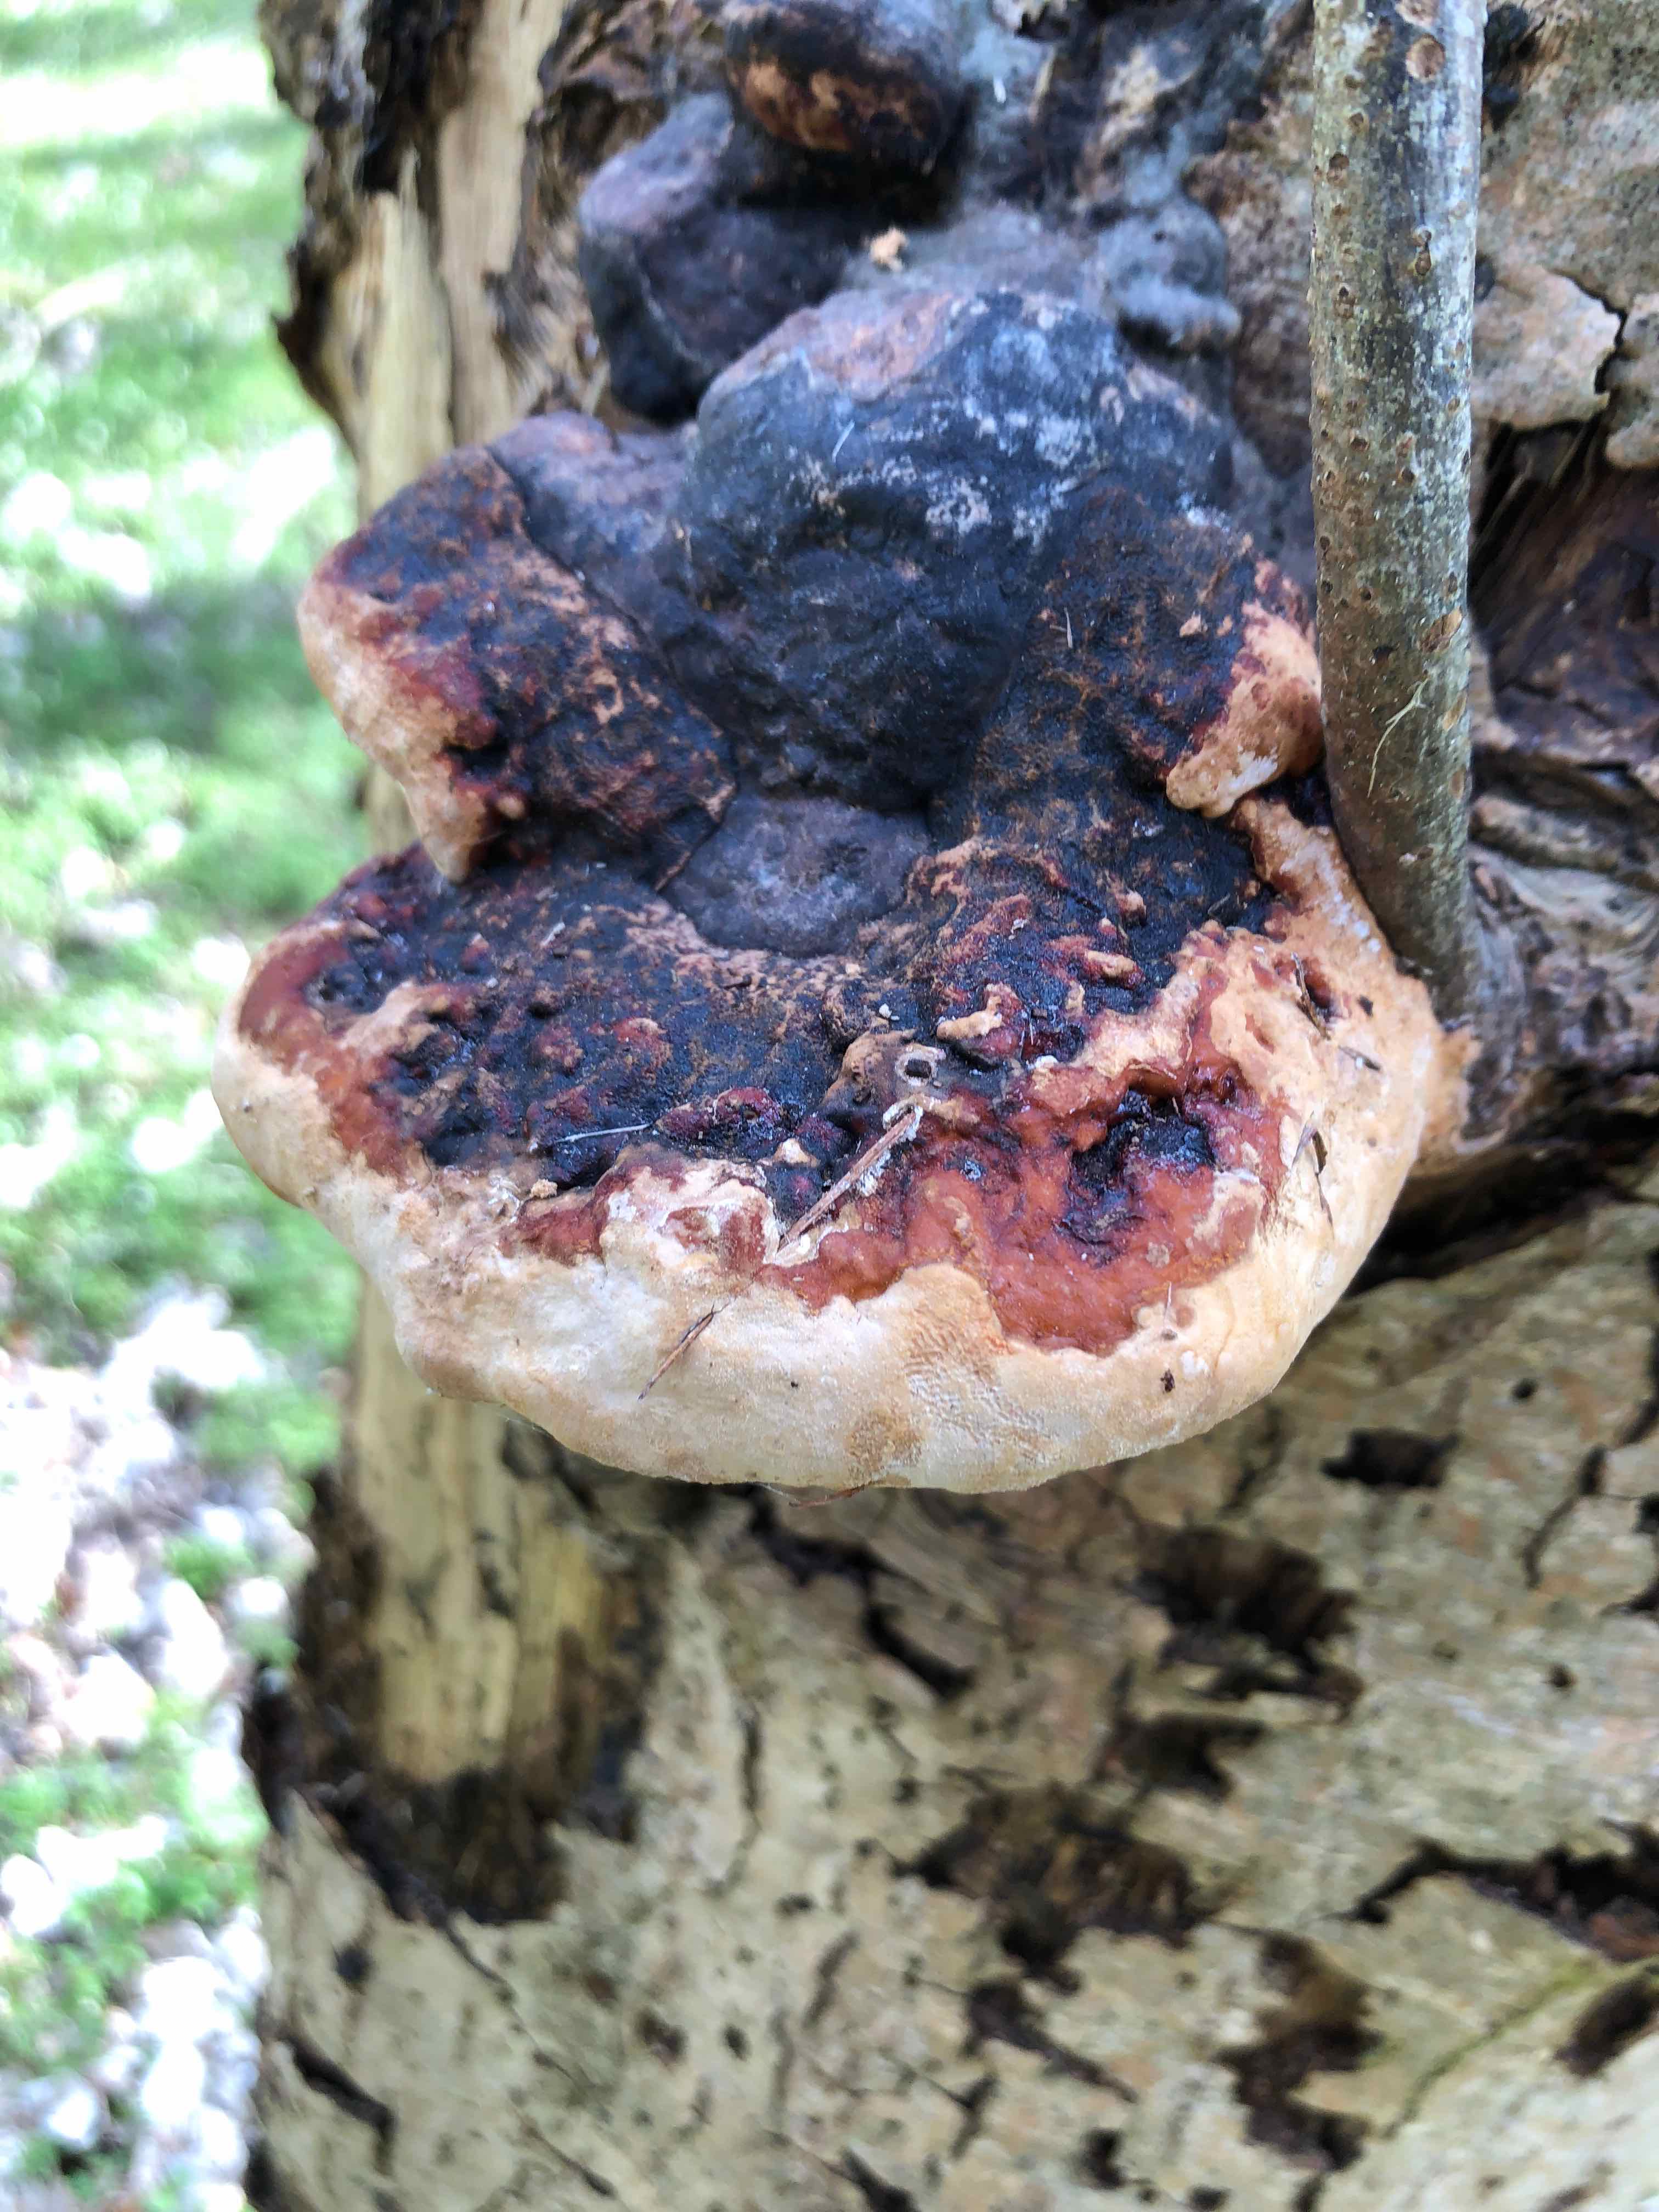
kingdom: Fungi
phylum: Basidiomycota
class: Agaricomycetes
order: Polyporales
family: Fomitopsidaceae
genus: Fomitopsis
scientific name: Fomitopsis pinicola
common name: randbæltet hovporesvamp
